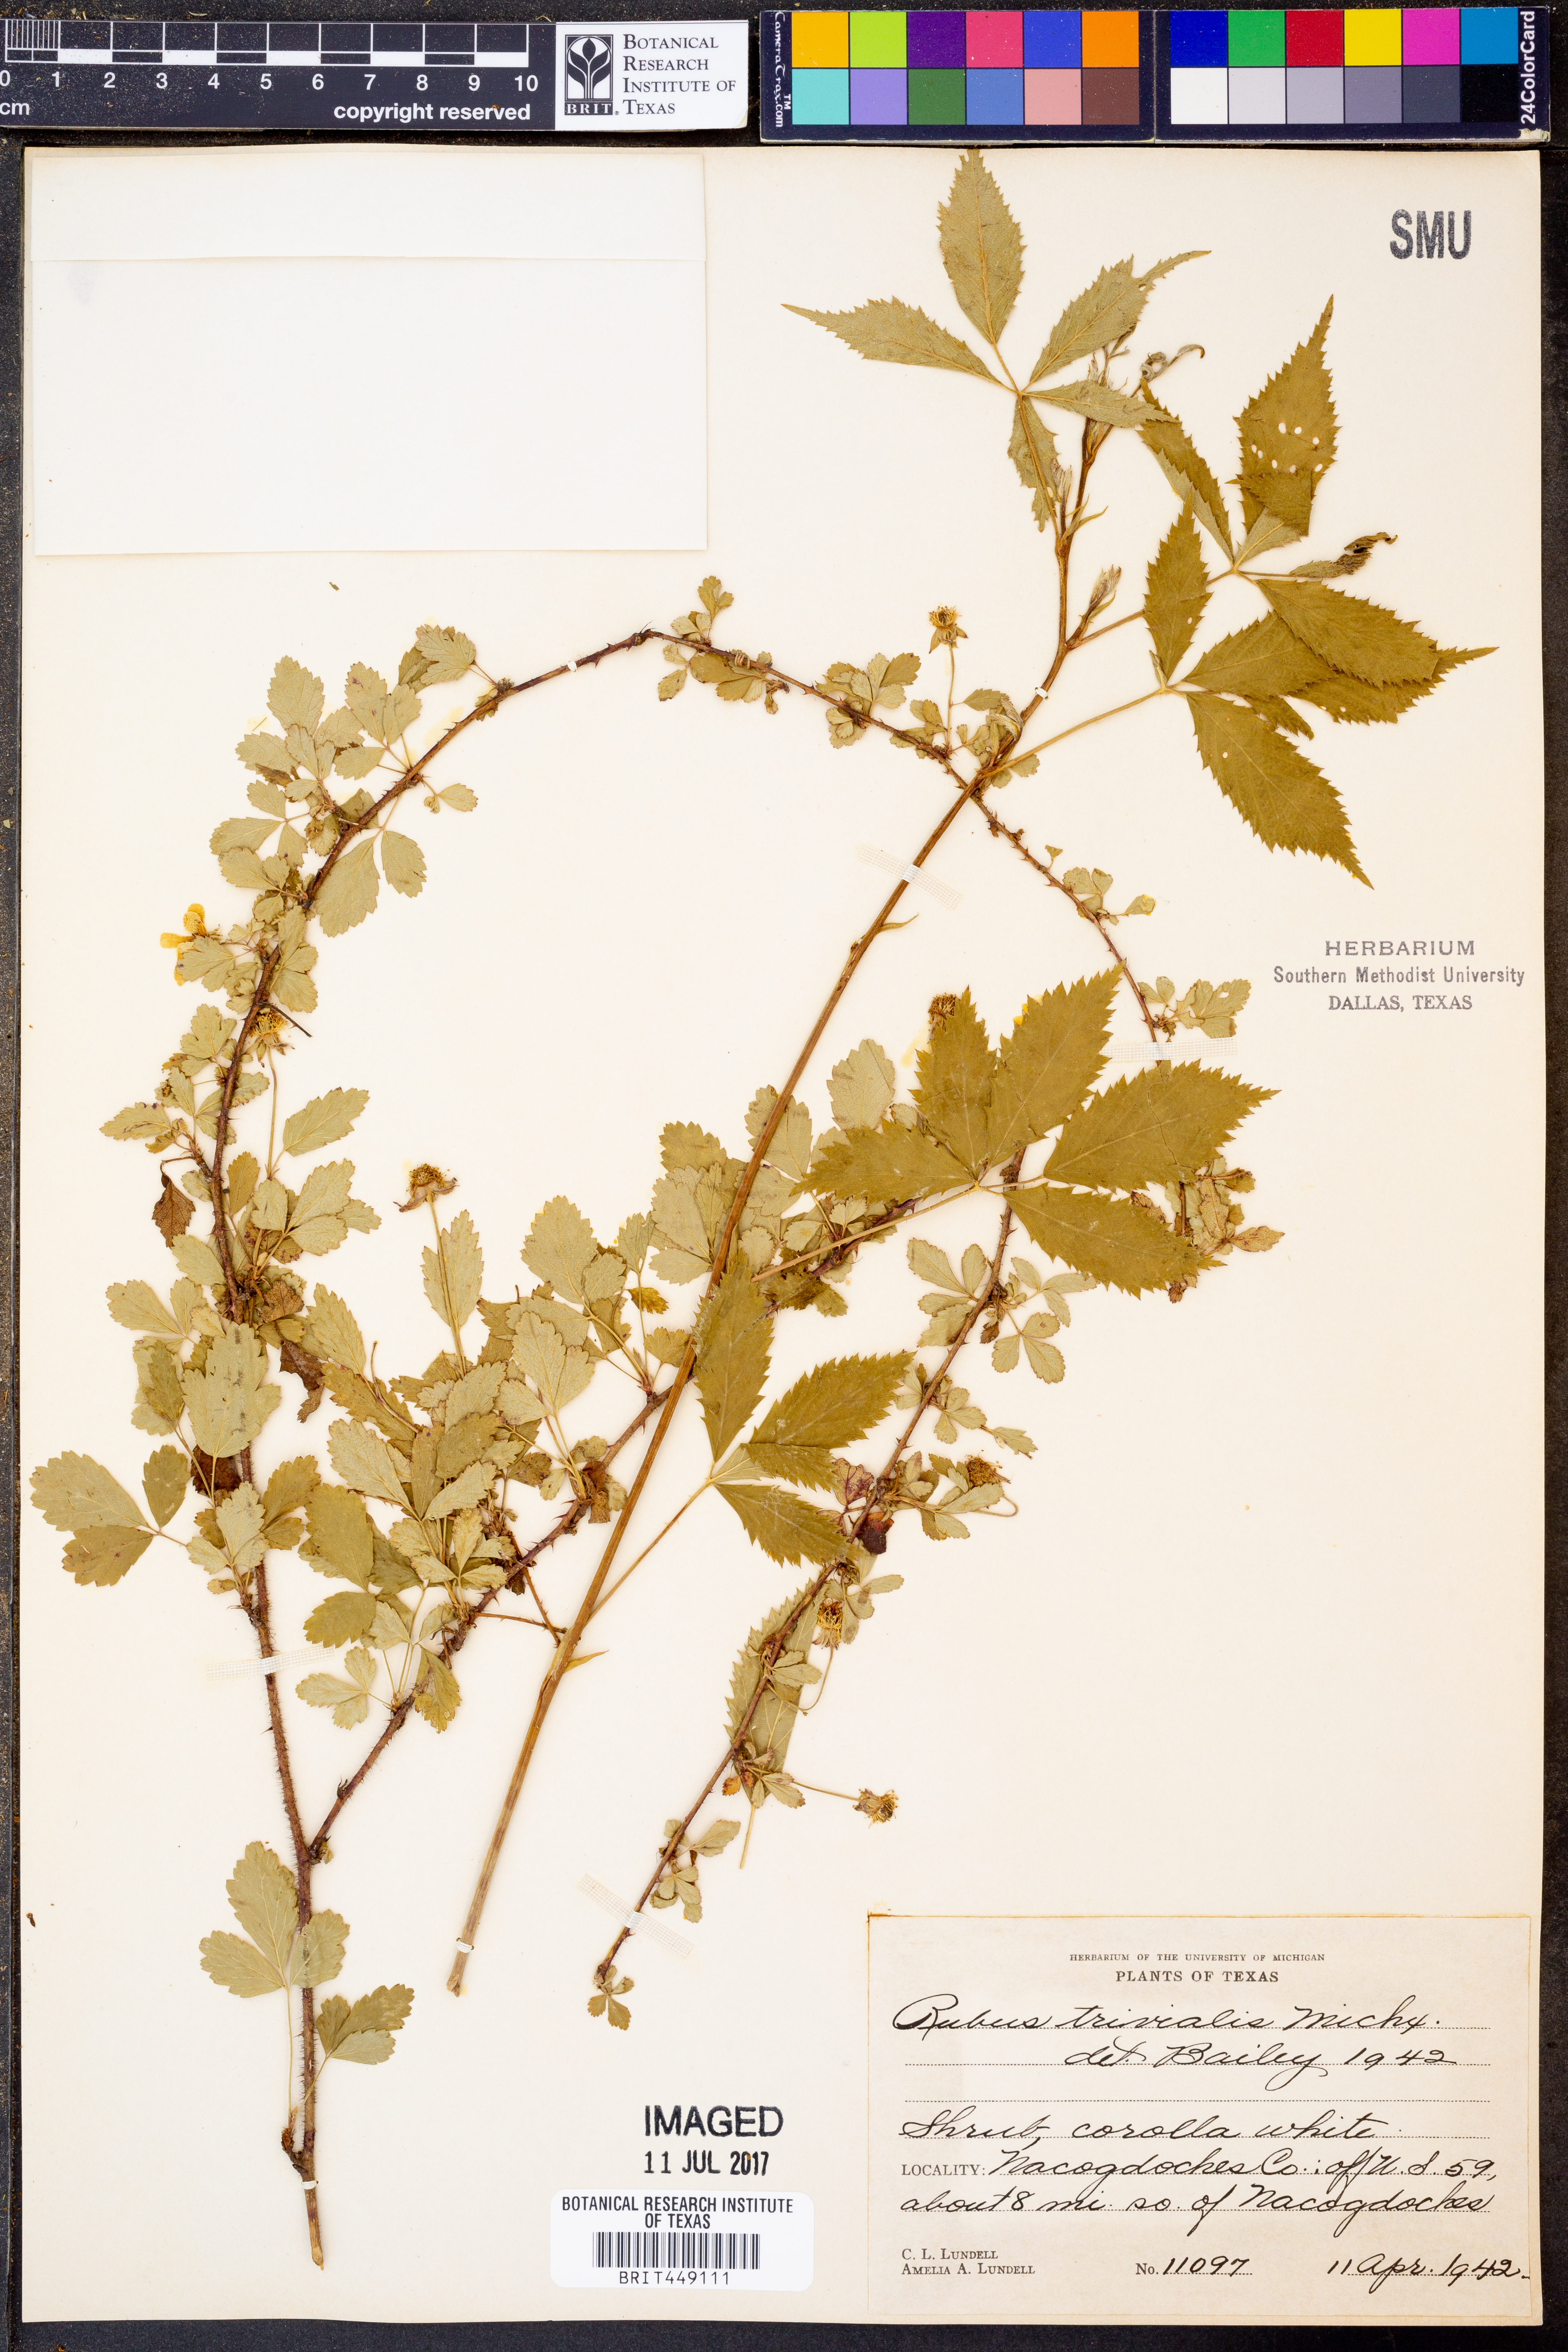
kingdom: Plantae
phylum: Tracheophyta
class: Magnoliopsida
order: Rosales
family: Rosaceae
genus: Rubus
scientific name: Rubus trivialis
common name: Southern dewberry
